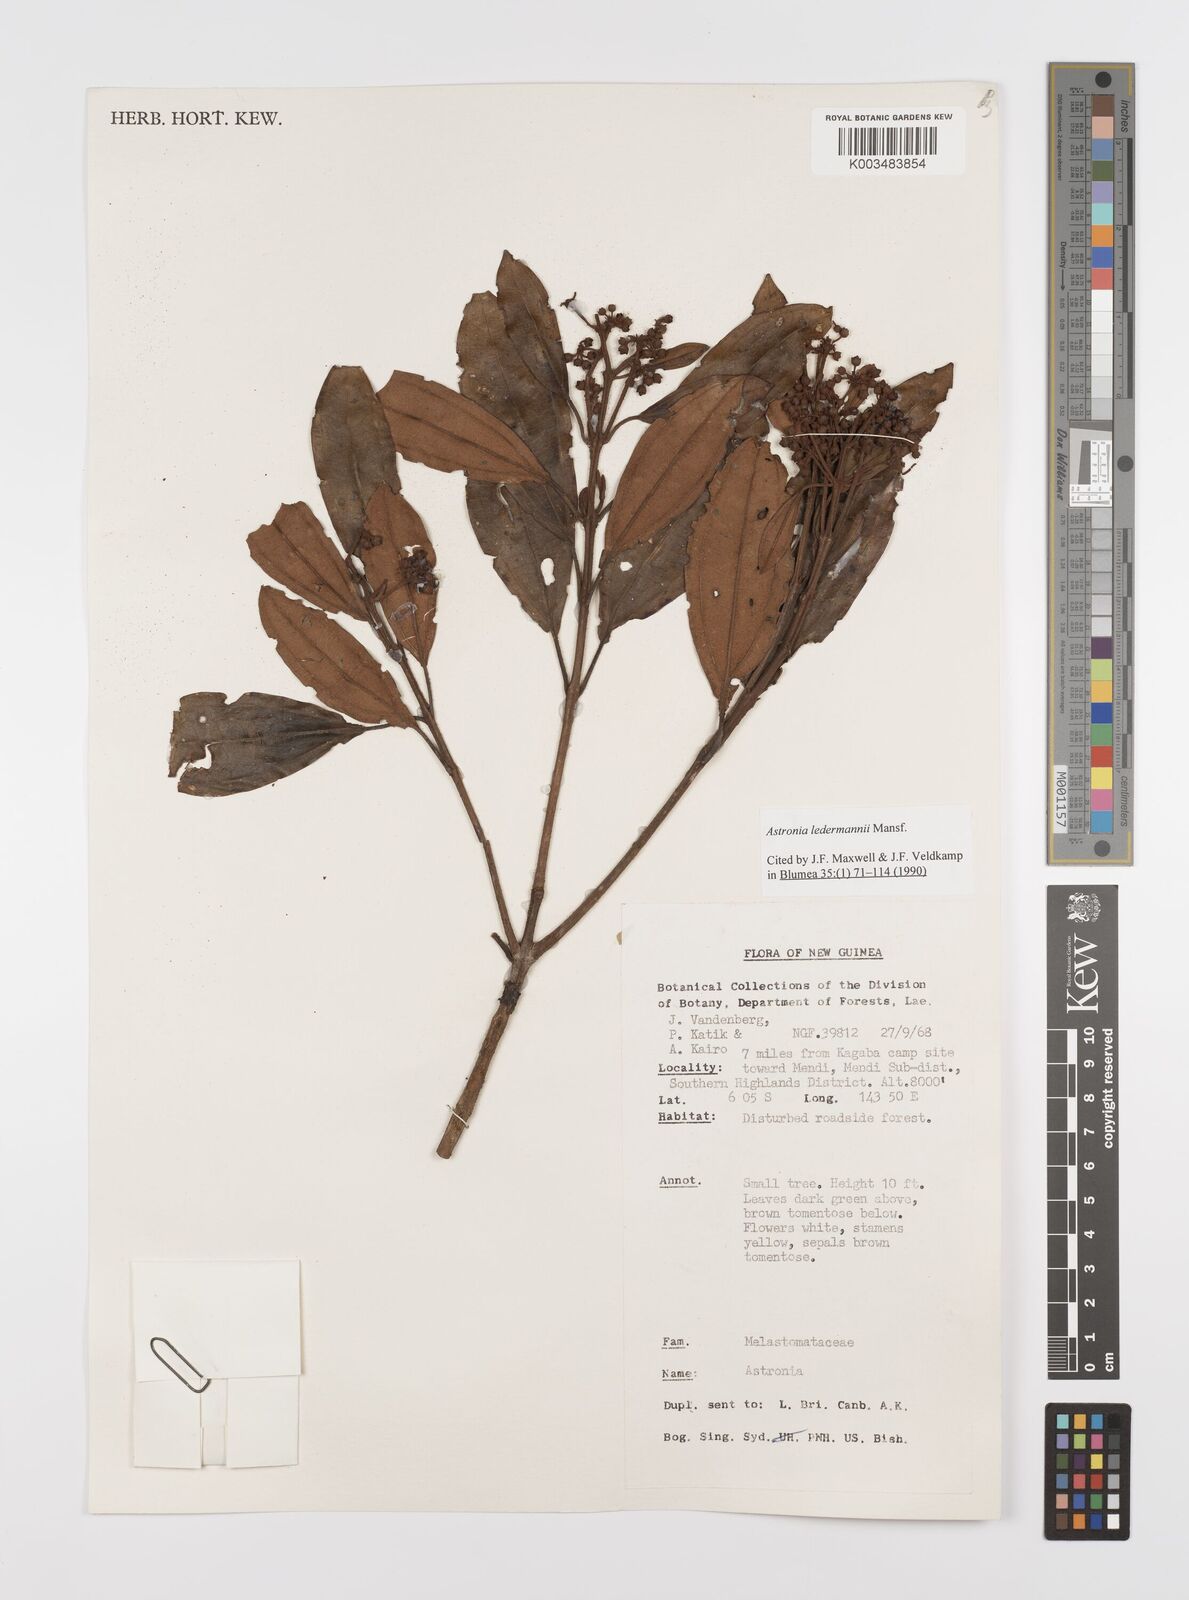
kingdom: Plantae
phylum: Tracheophyta
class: Magnoliopsida
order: Myrtales
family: Melastomataceae
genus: Astronia
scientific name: Astronia ledermannii
